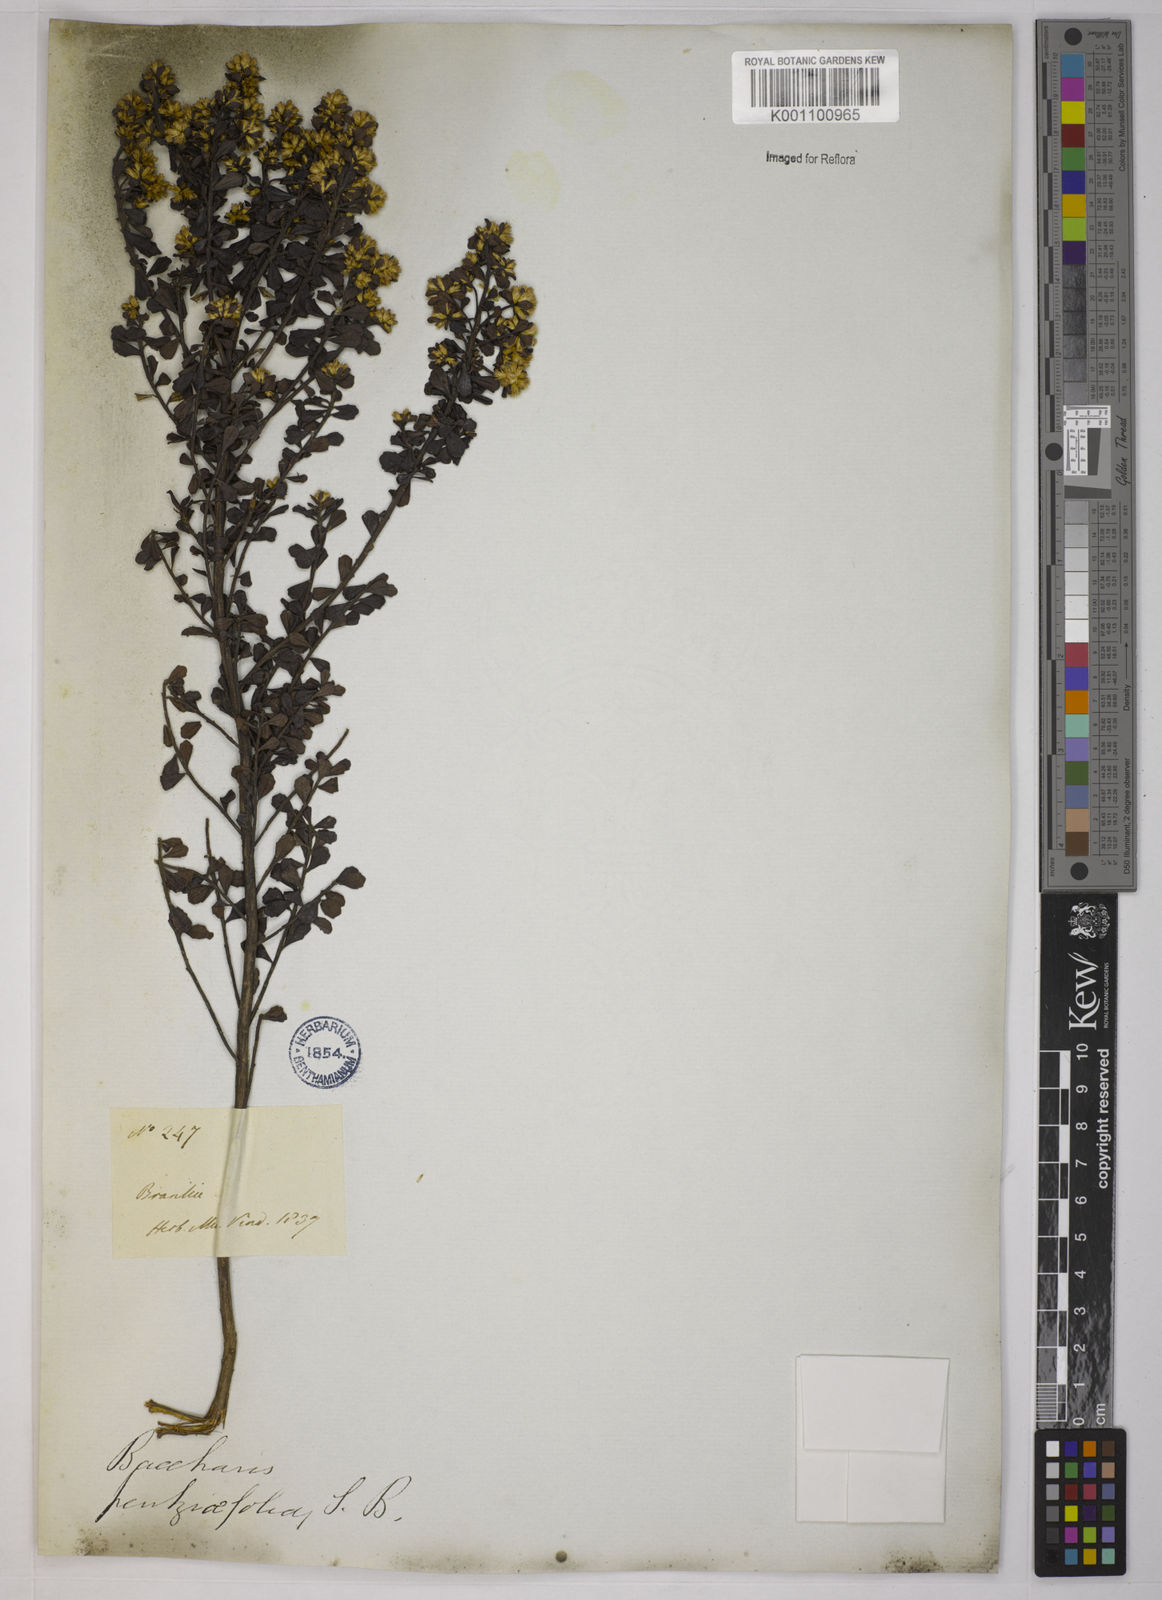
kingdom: Plantae
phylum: Tracheophyta
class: Magnoliopsida
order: Asterales
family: Asteraceae
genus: Baccharis
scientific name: Baccharis pentziifolia
